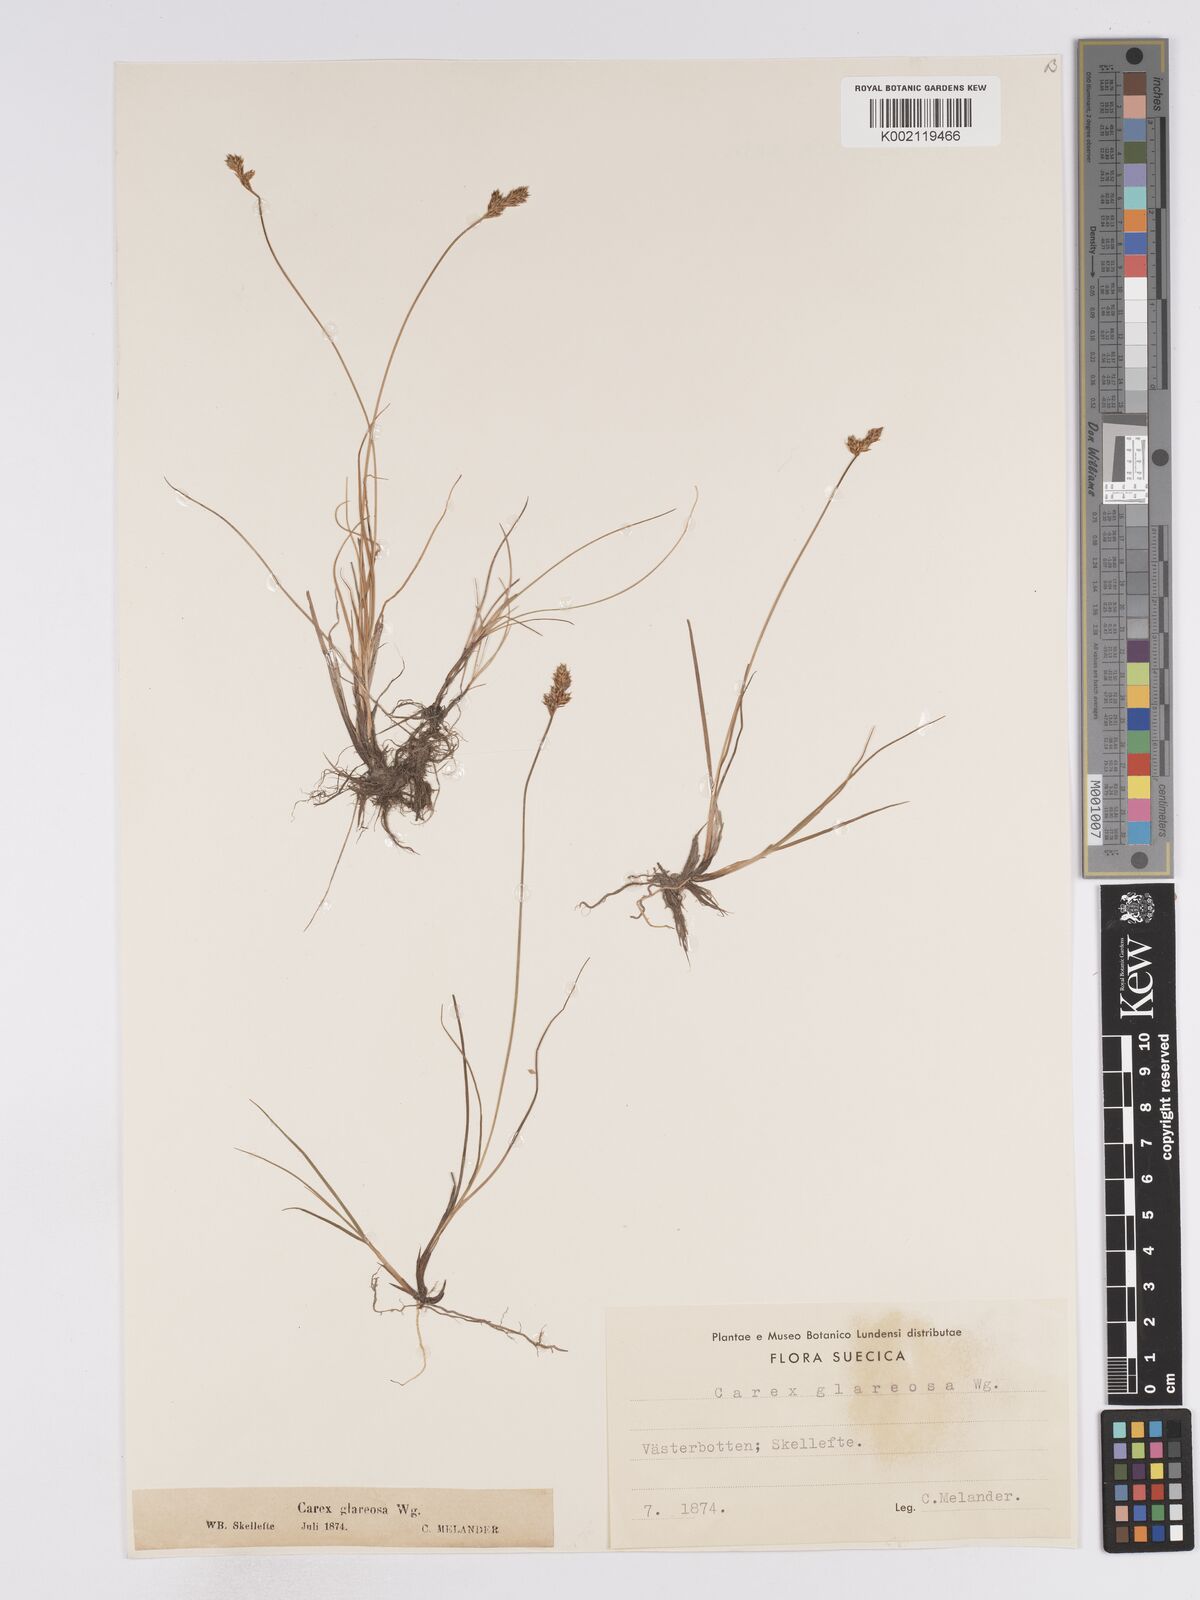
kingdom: Plantae
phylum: Tracheophyta
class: Liliopsida
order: Poales
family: Cyperaceae
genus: Carex
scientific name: Carex glareosa
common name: Clustered sedge
